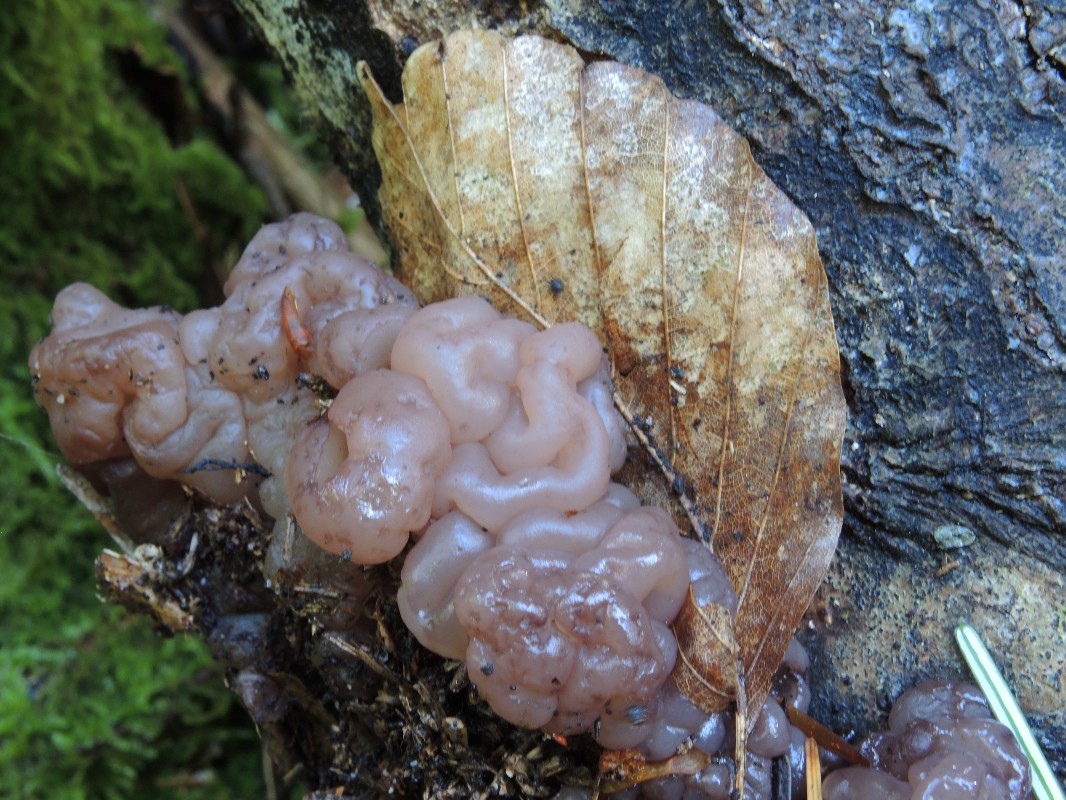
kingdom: Fungi
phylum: Ascomycota
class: Leotiomycetes
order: Helotiales
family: Gelatinodiscaceae
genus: Ascotremella
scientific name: Ascotremella faginea
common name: hjerne-bævreskive
